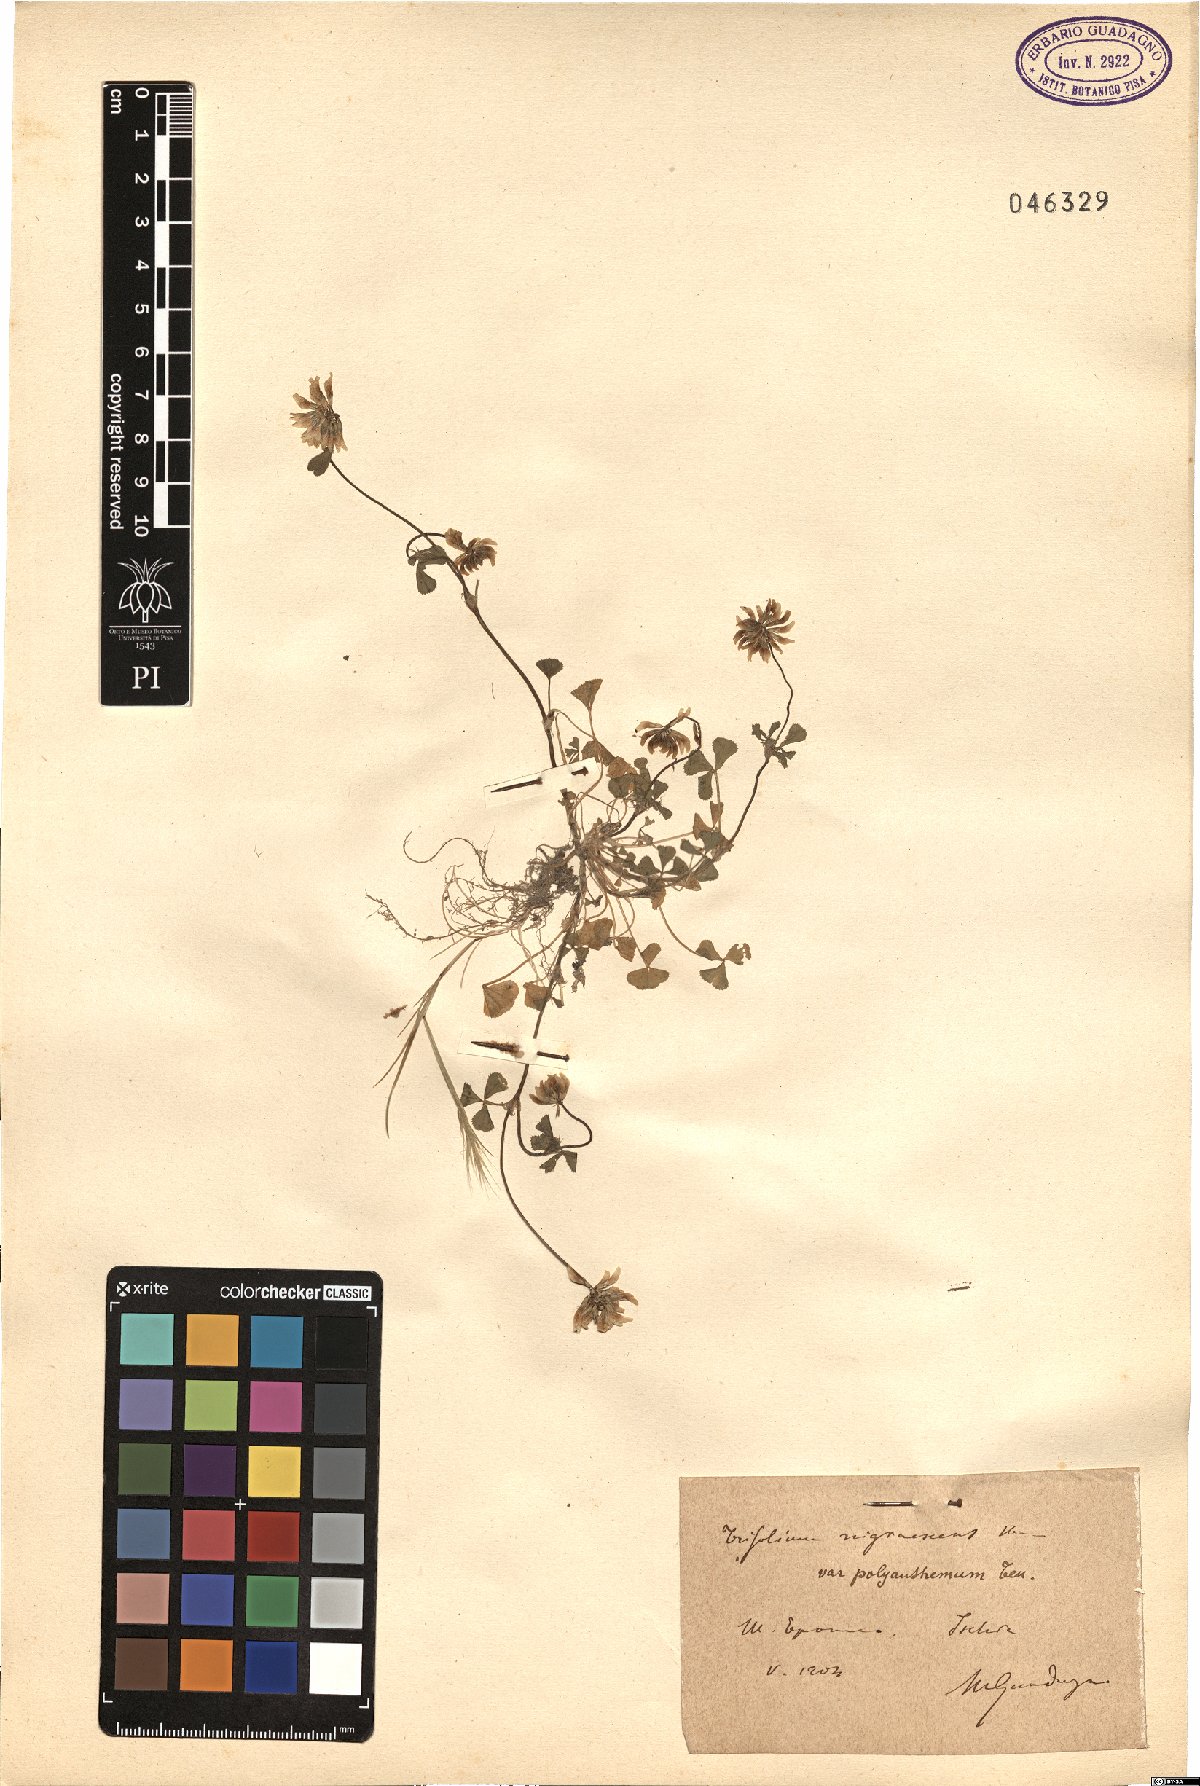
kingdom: Plantae
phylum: Tracheophyta
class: Magnoliopsida
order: Fabales
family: Fabaceae
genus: Trifolium
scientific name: Trifolium nigrescens
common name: Small white clover
